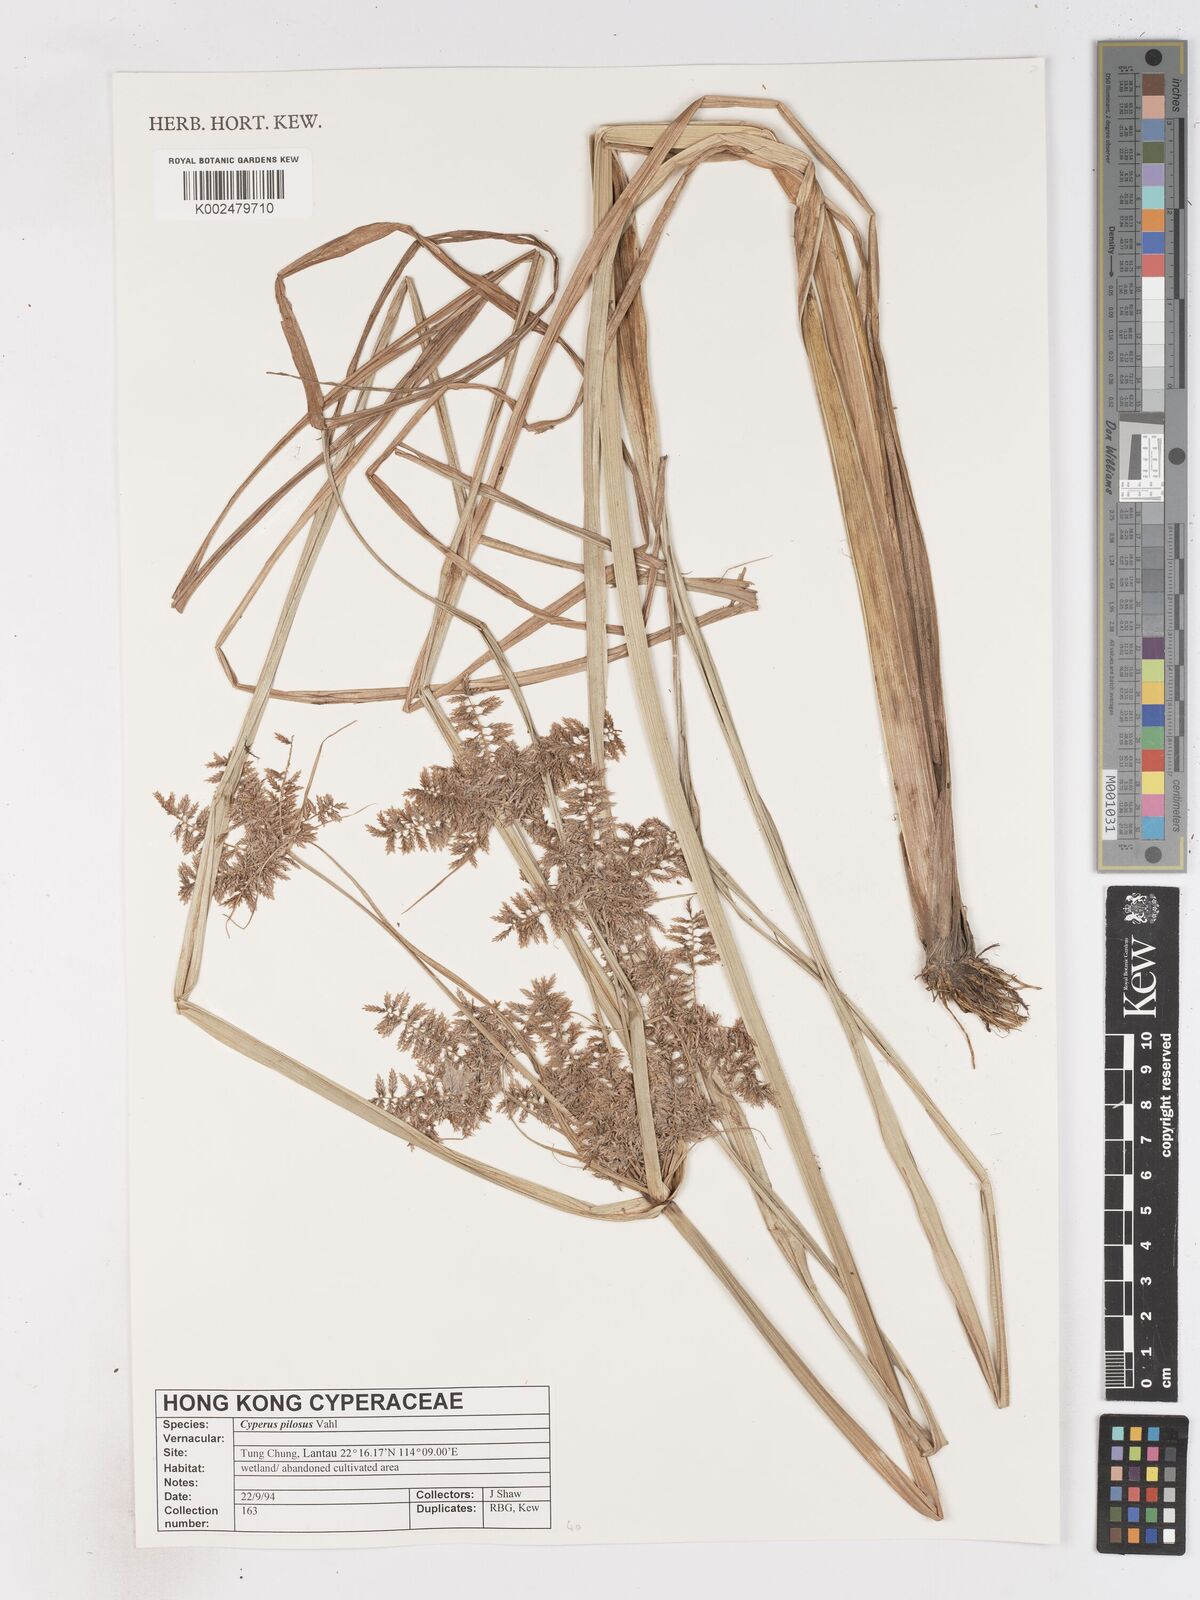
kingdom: Plantae
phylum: Tracheophyta
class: Liliopsida
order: Poales
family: Cyperaceae
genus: Cyperus
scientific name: Cyperus pilosus
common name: Fuzzy flatsedge
